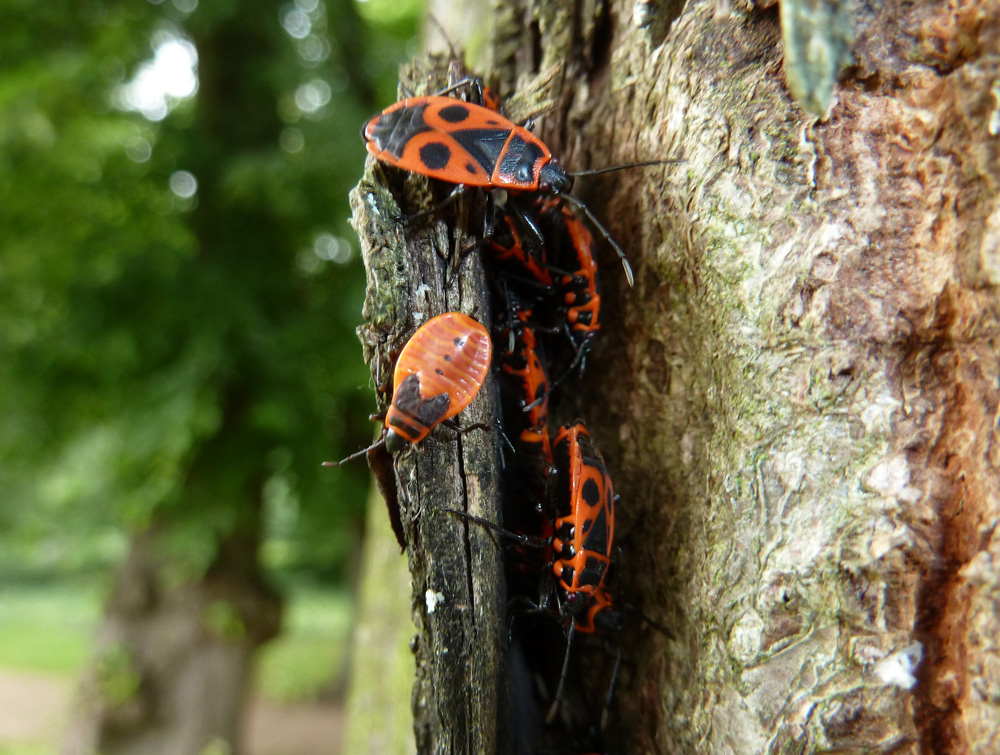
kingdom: Animalia
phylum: Arthropoda
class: Insecta
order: Hemiptera
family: Pyrrhocoridae
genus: Pyrrhocoris
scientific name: Pyrrhocoris apterus
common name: Firebug
